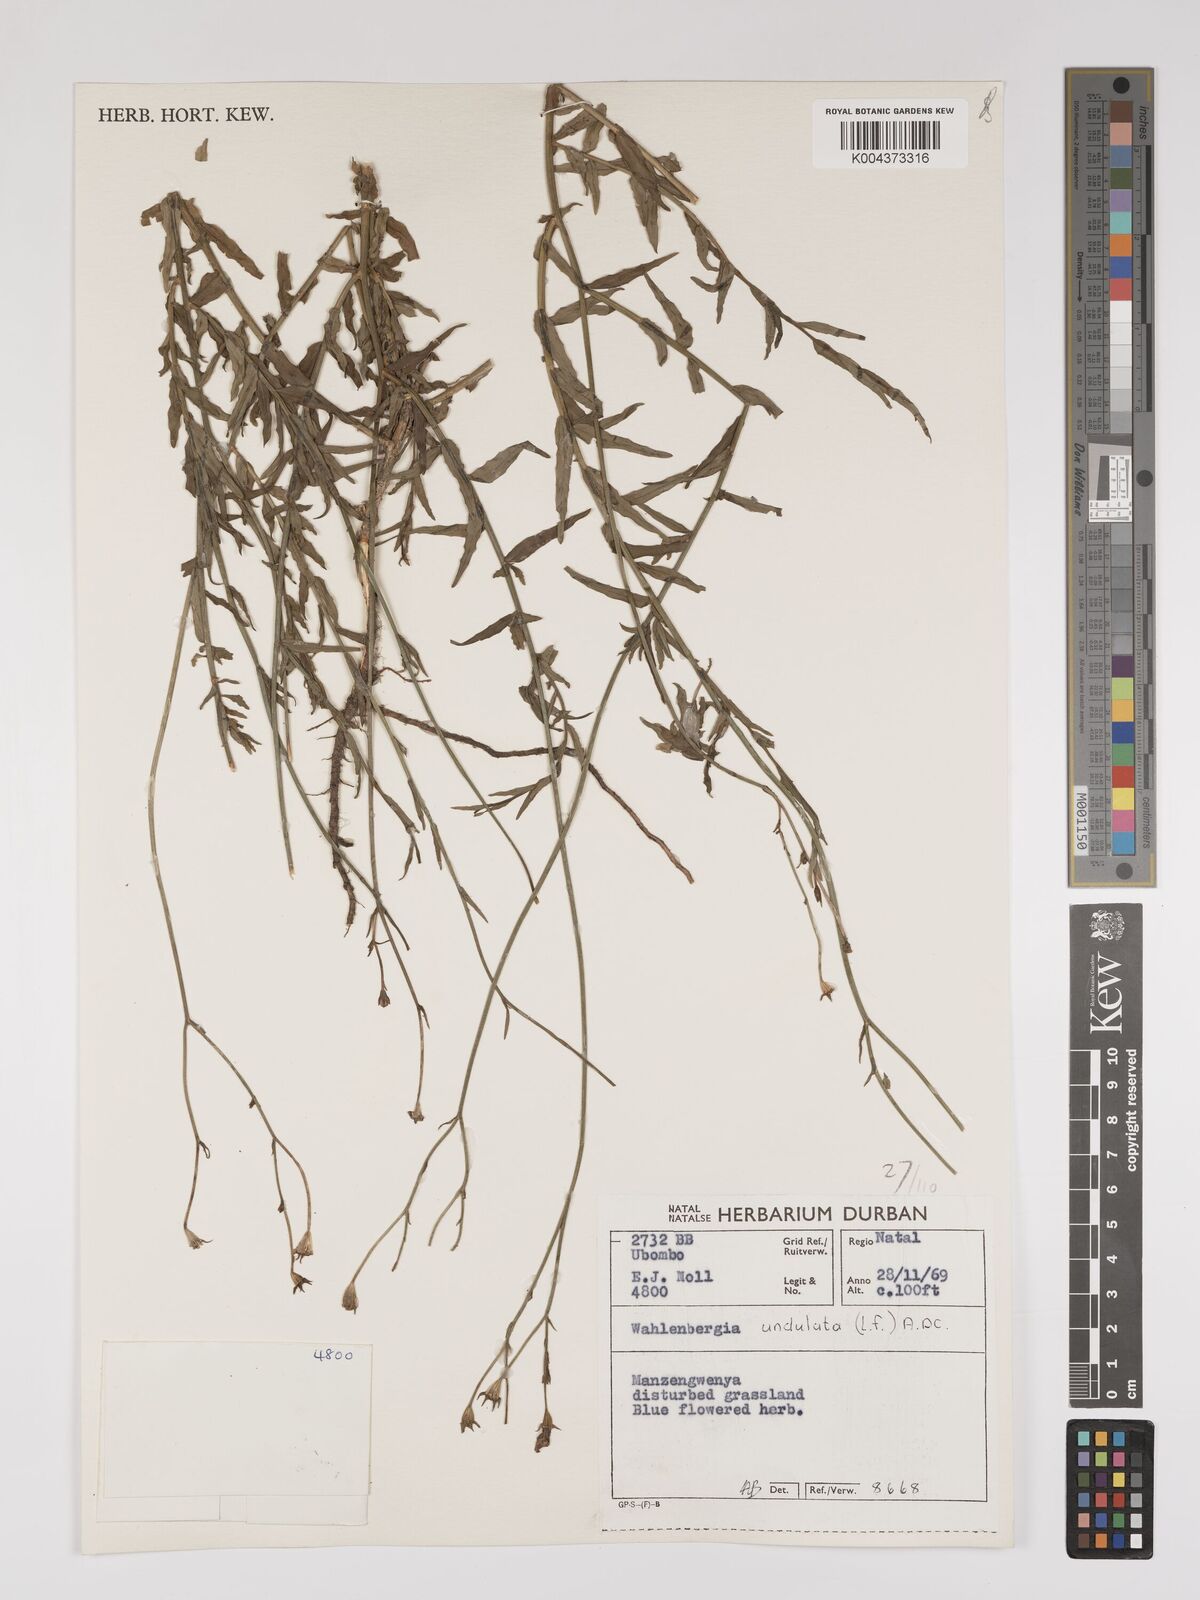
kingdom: Plantae
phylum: Tracheophyta
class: Magnoliopsida
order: Asterales
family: Campanulaceae
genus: Wahlenbergia
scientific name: Wahlenbergia undulata
